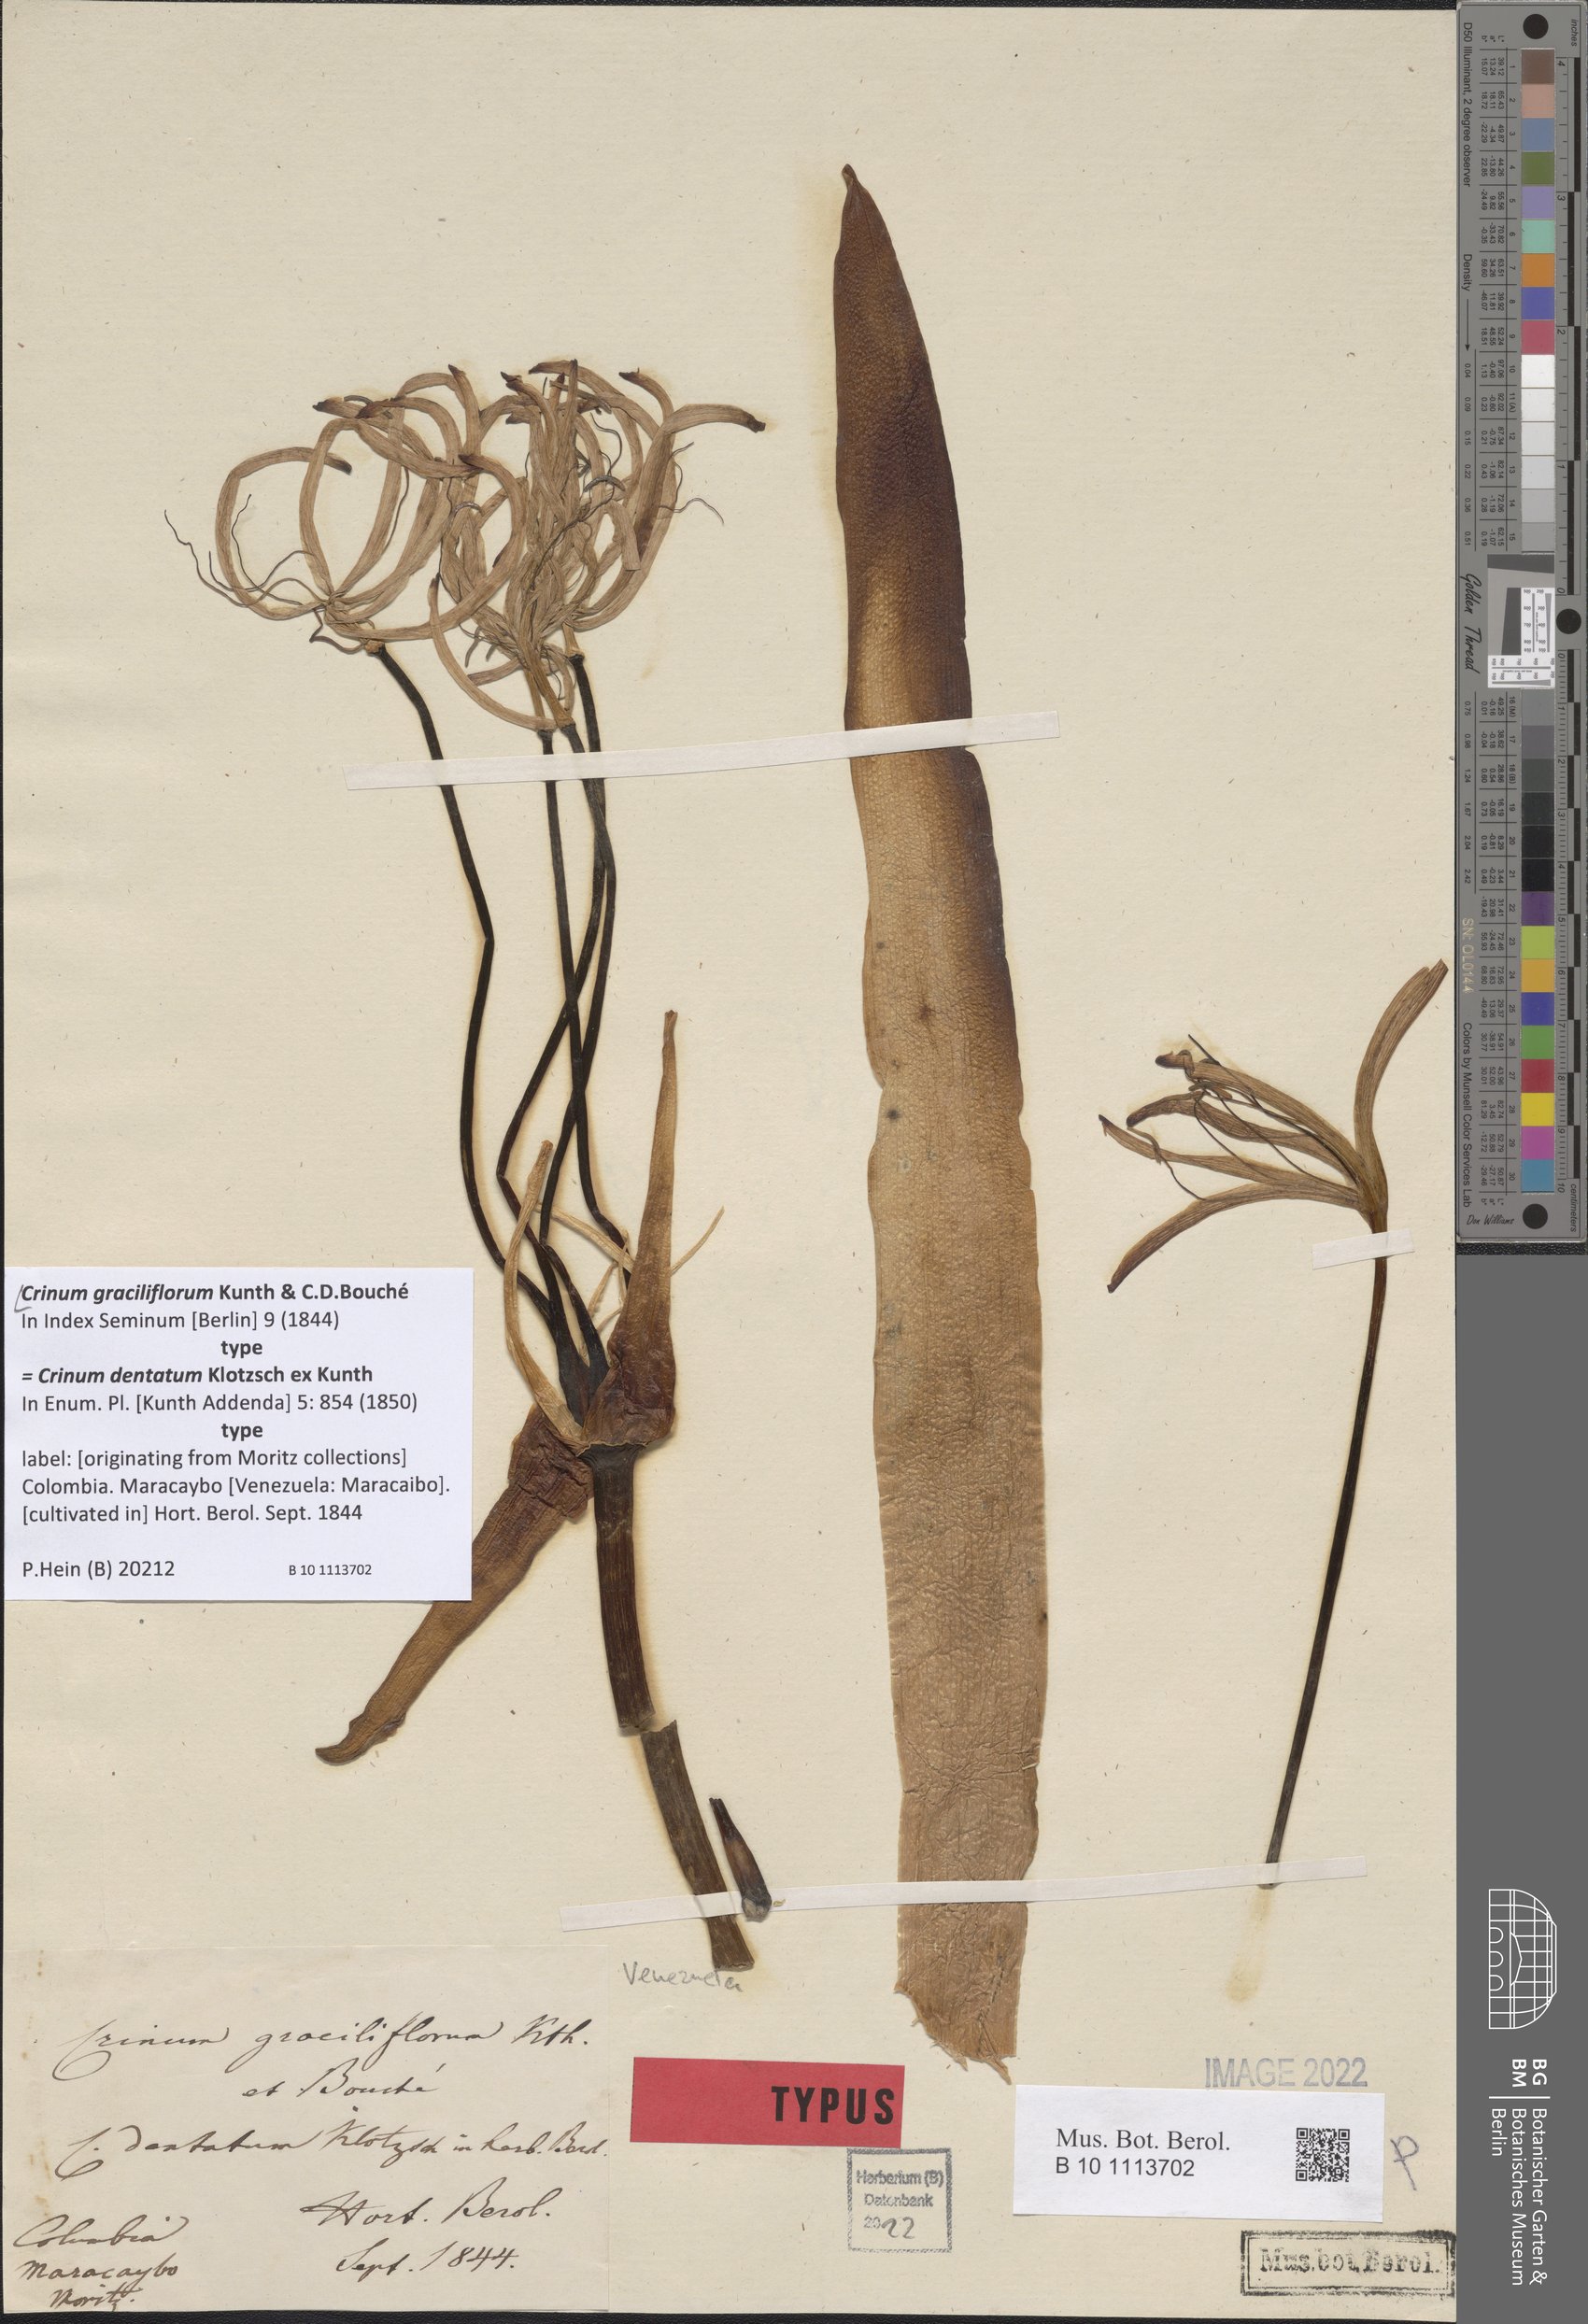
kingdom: Plantae
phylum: Tracheophyta
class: Liliopsida
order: Asparagales
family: Amaryllidaceae
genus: Crinum
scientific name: Crinum graciliflorum
